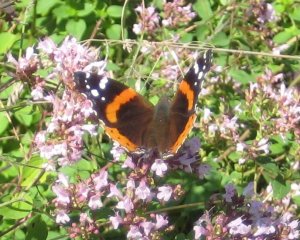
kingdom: Animalia
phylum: Arthropoda
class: Insecta
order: Lepidoptera
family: Nymphalidae
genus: Vanessa
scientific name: Vanessa atalanta
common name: Red Admiral
